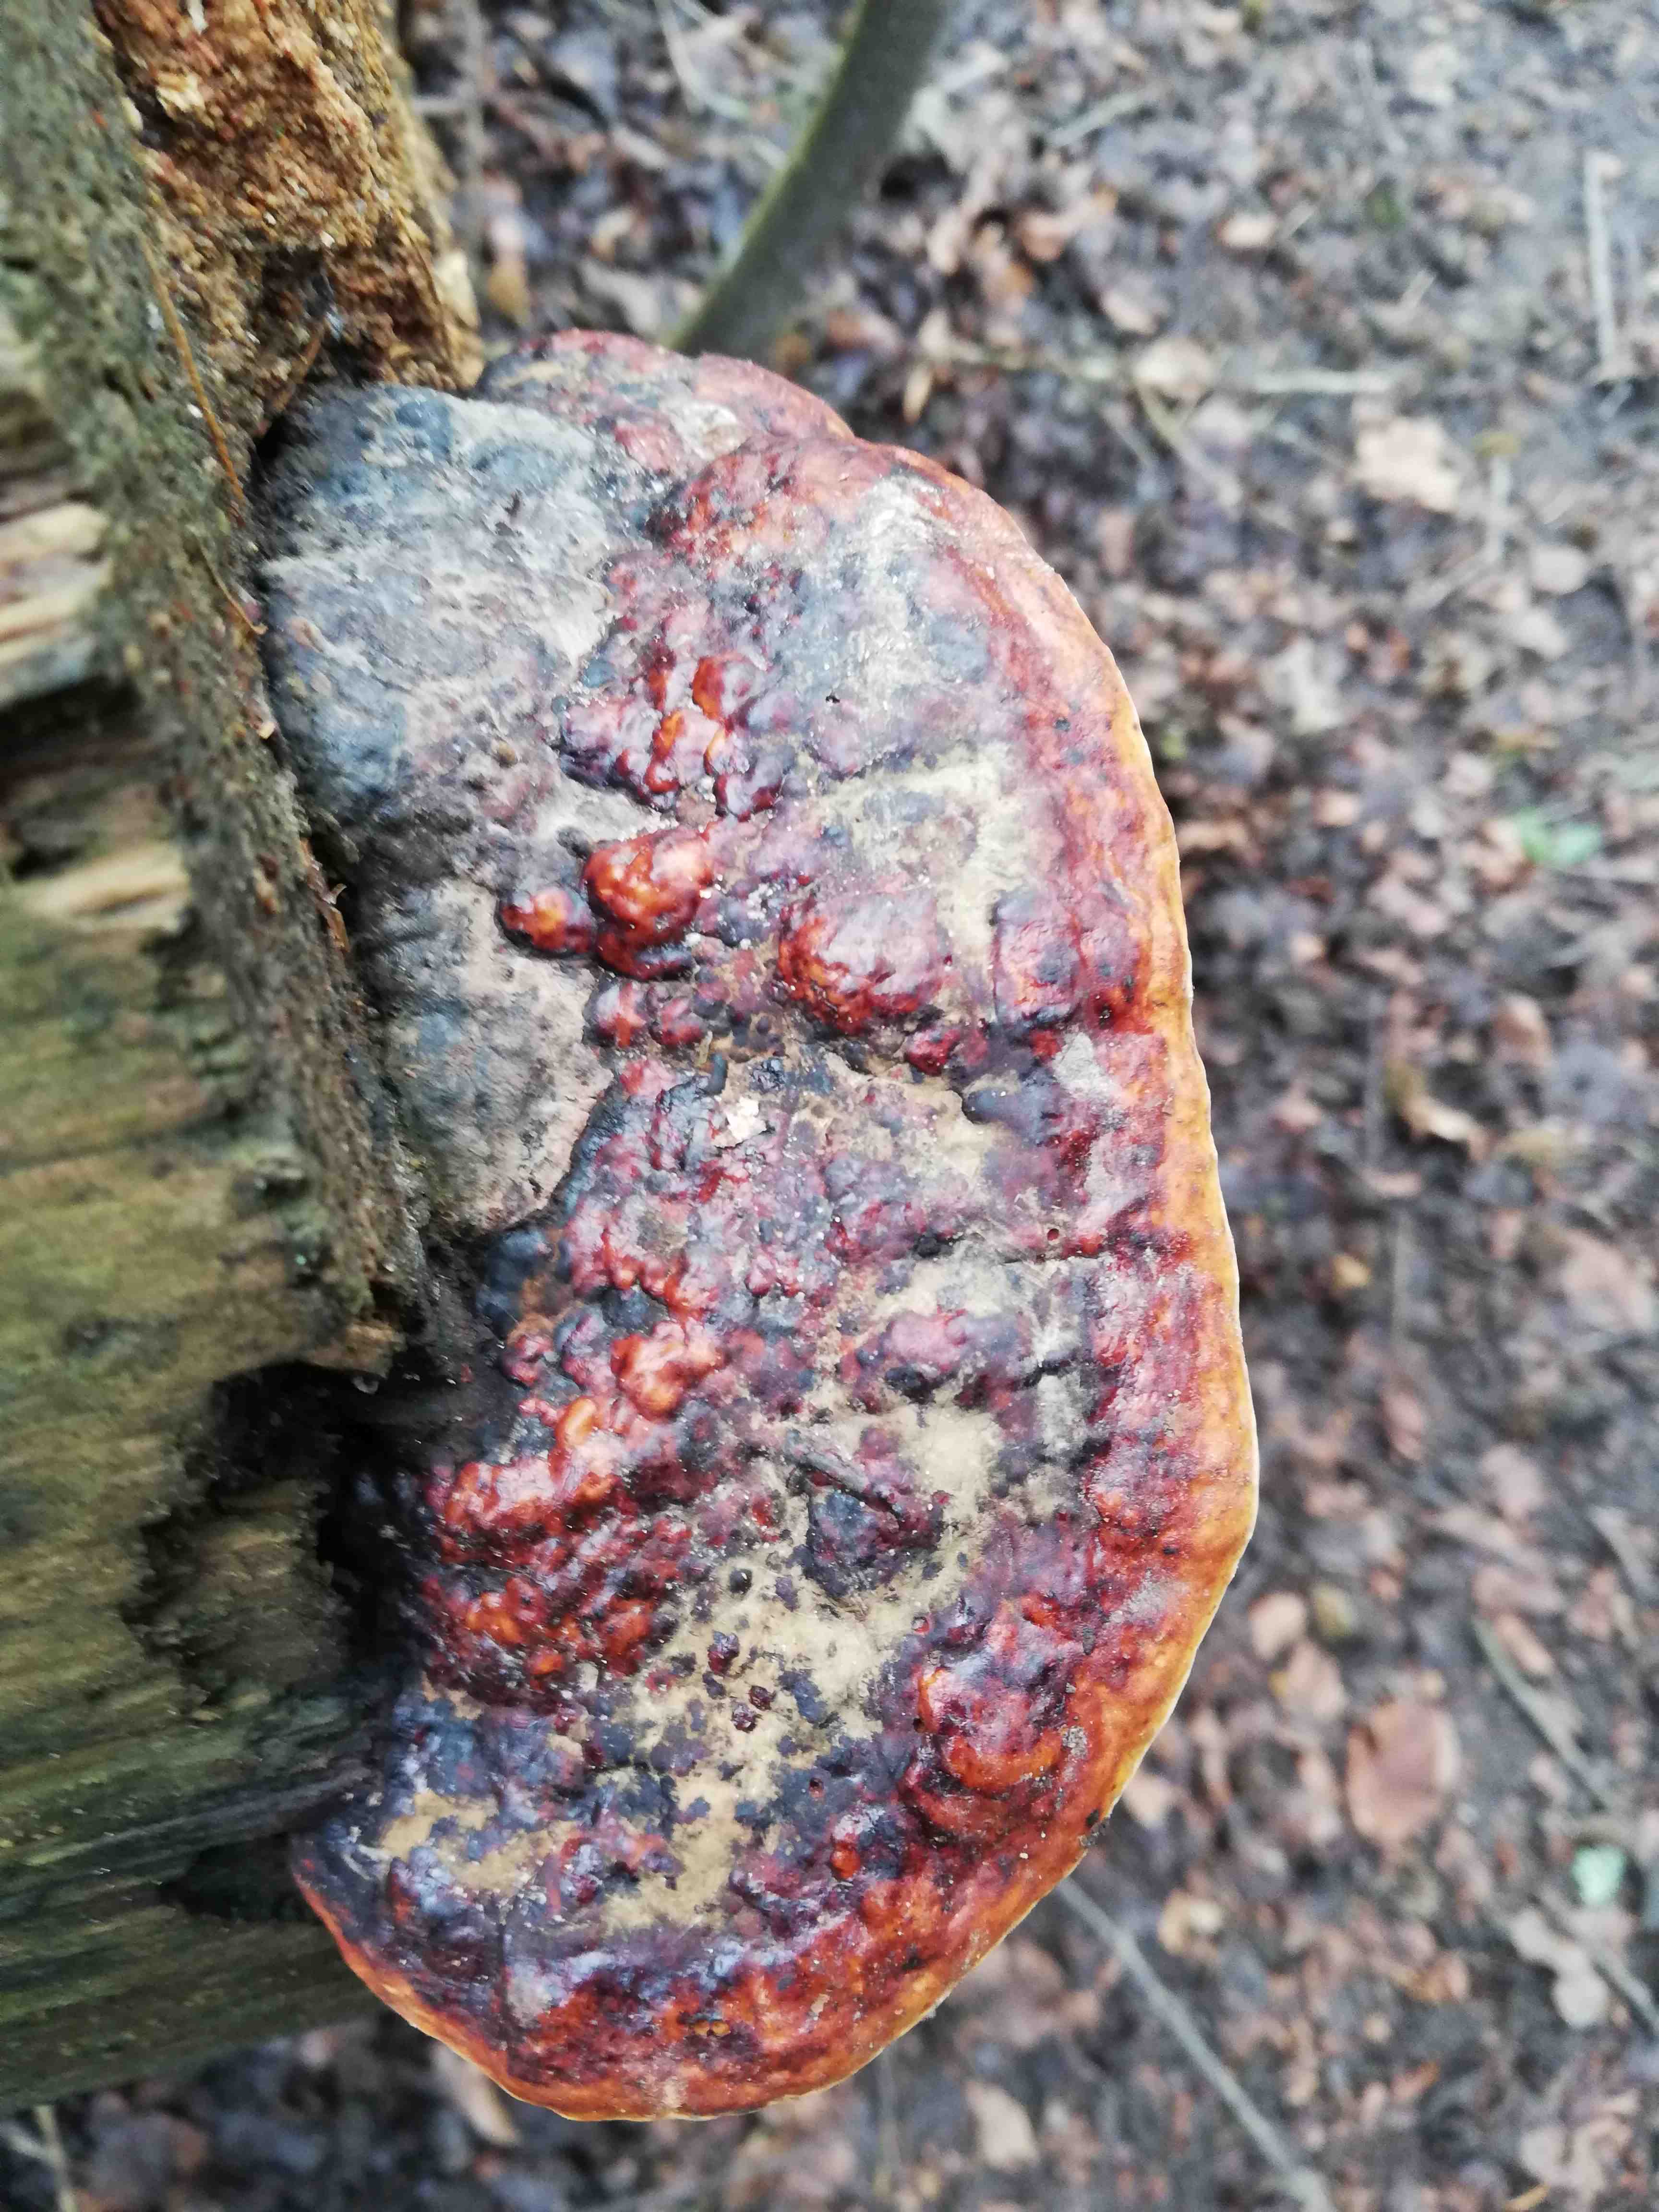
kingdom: Fungi
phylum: Basidiomycota
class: Agaricomycetes
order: Polyporales
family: Fomitopsidaceae
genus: Fomitopsis
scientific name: Fomitopsis pinicola
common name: randbæltet hovporesvamp
